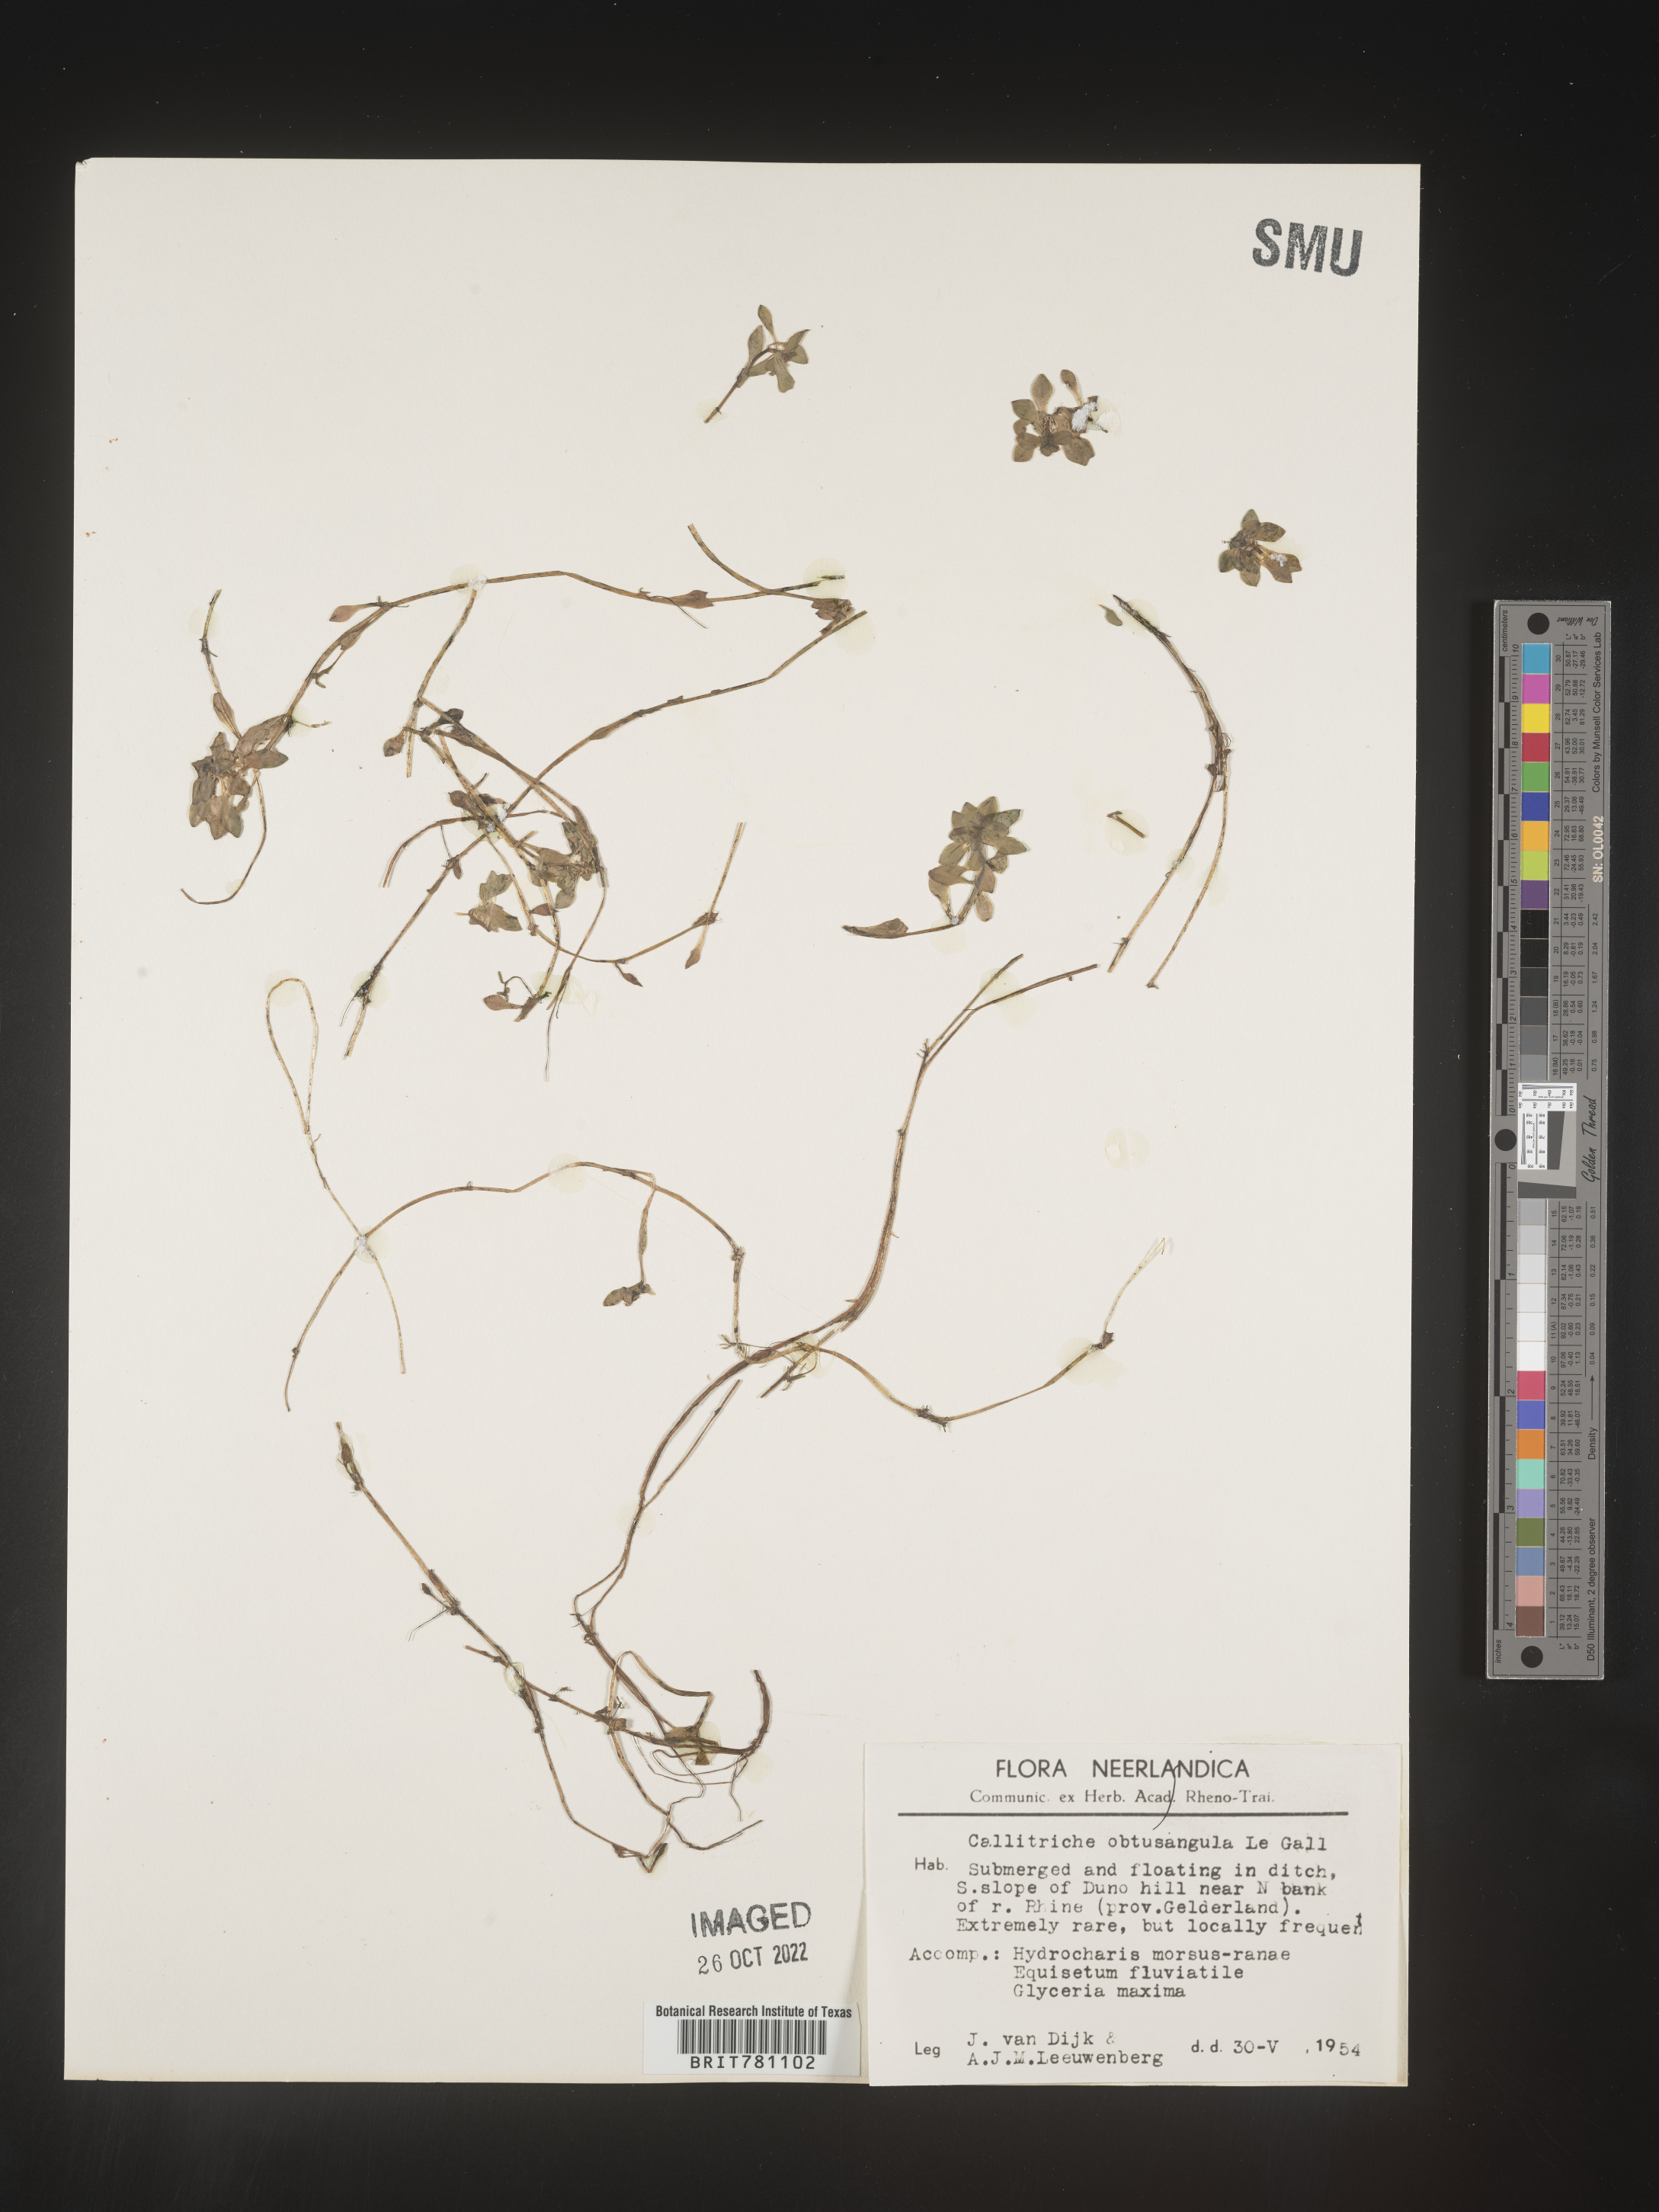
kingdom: Plantae
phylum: Tracheophyta
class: Magnoliopsida
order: Lamiales
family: Plantaginaceae
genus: Callitriche
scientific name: Callitriche
